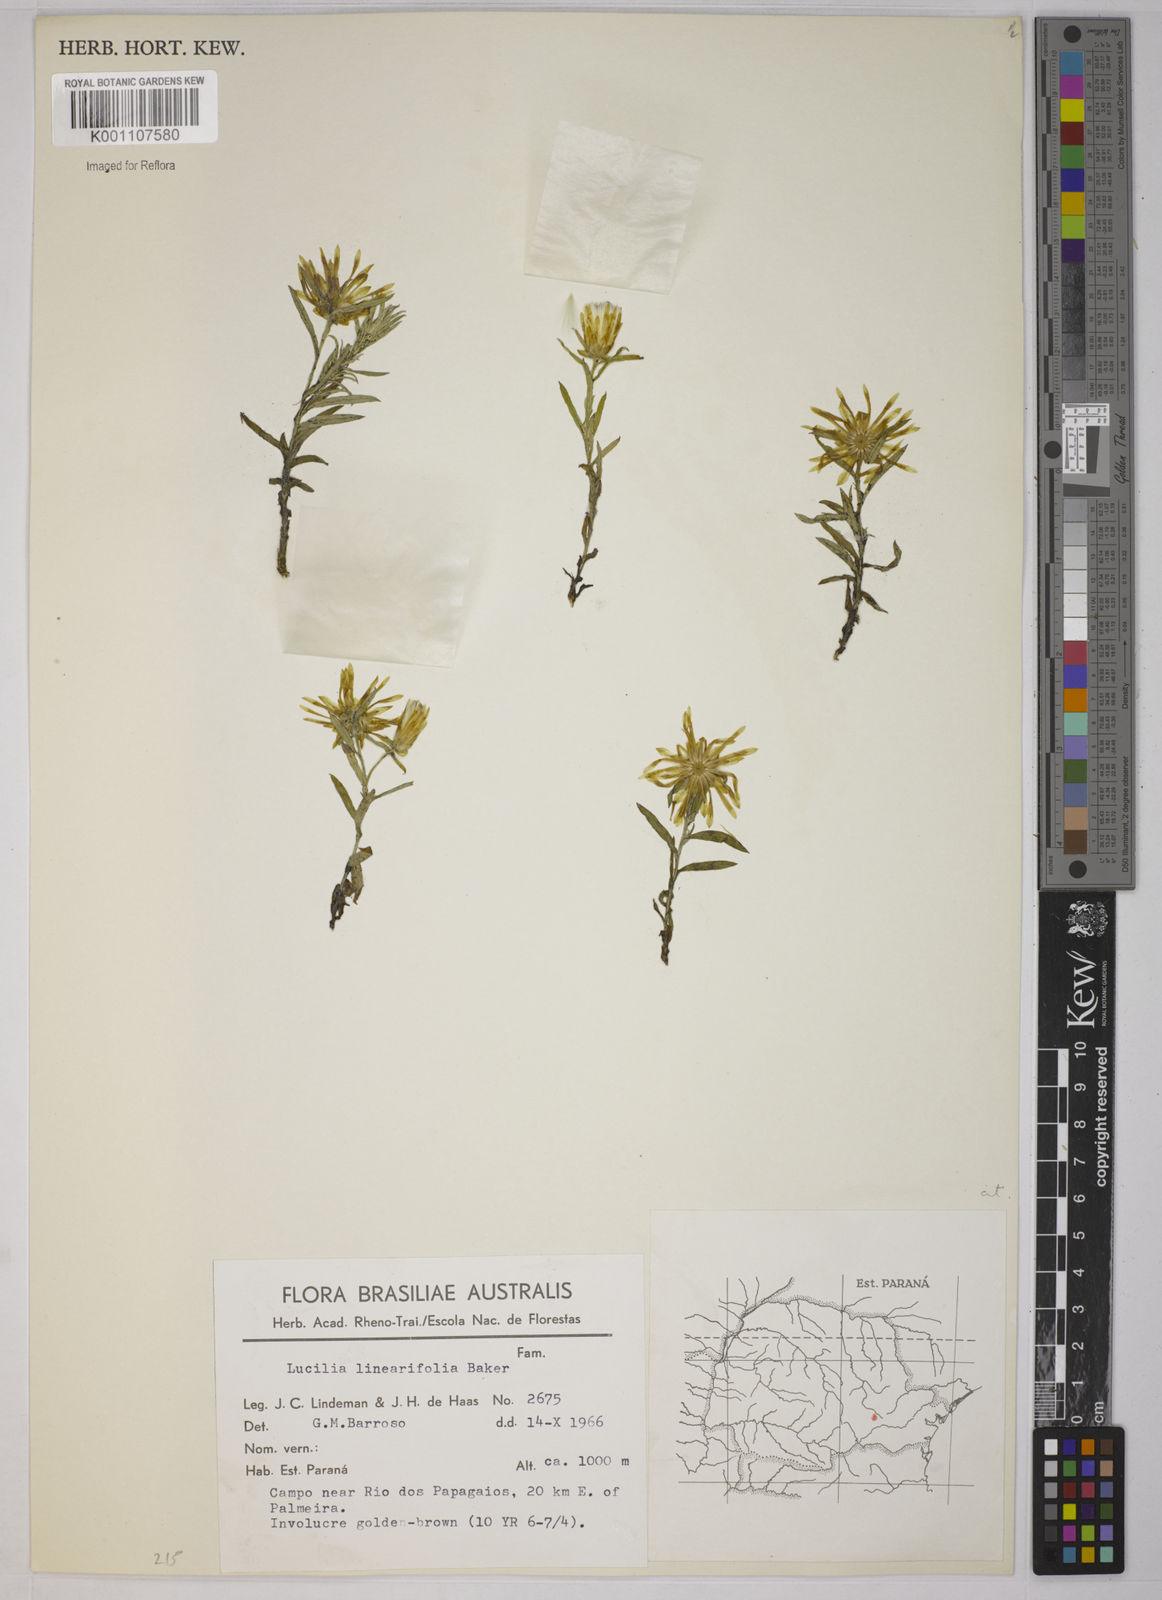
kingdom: Plantae
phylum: Tracheophyta
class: Magnoliopsida
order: Asterales
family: Asteraceae
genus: Lucilia
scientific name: Lucilia linearifolia
